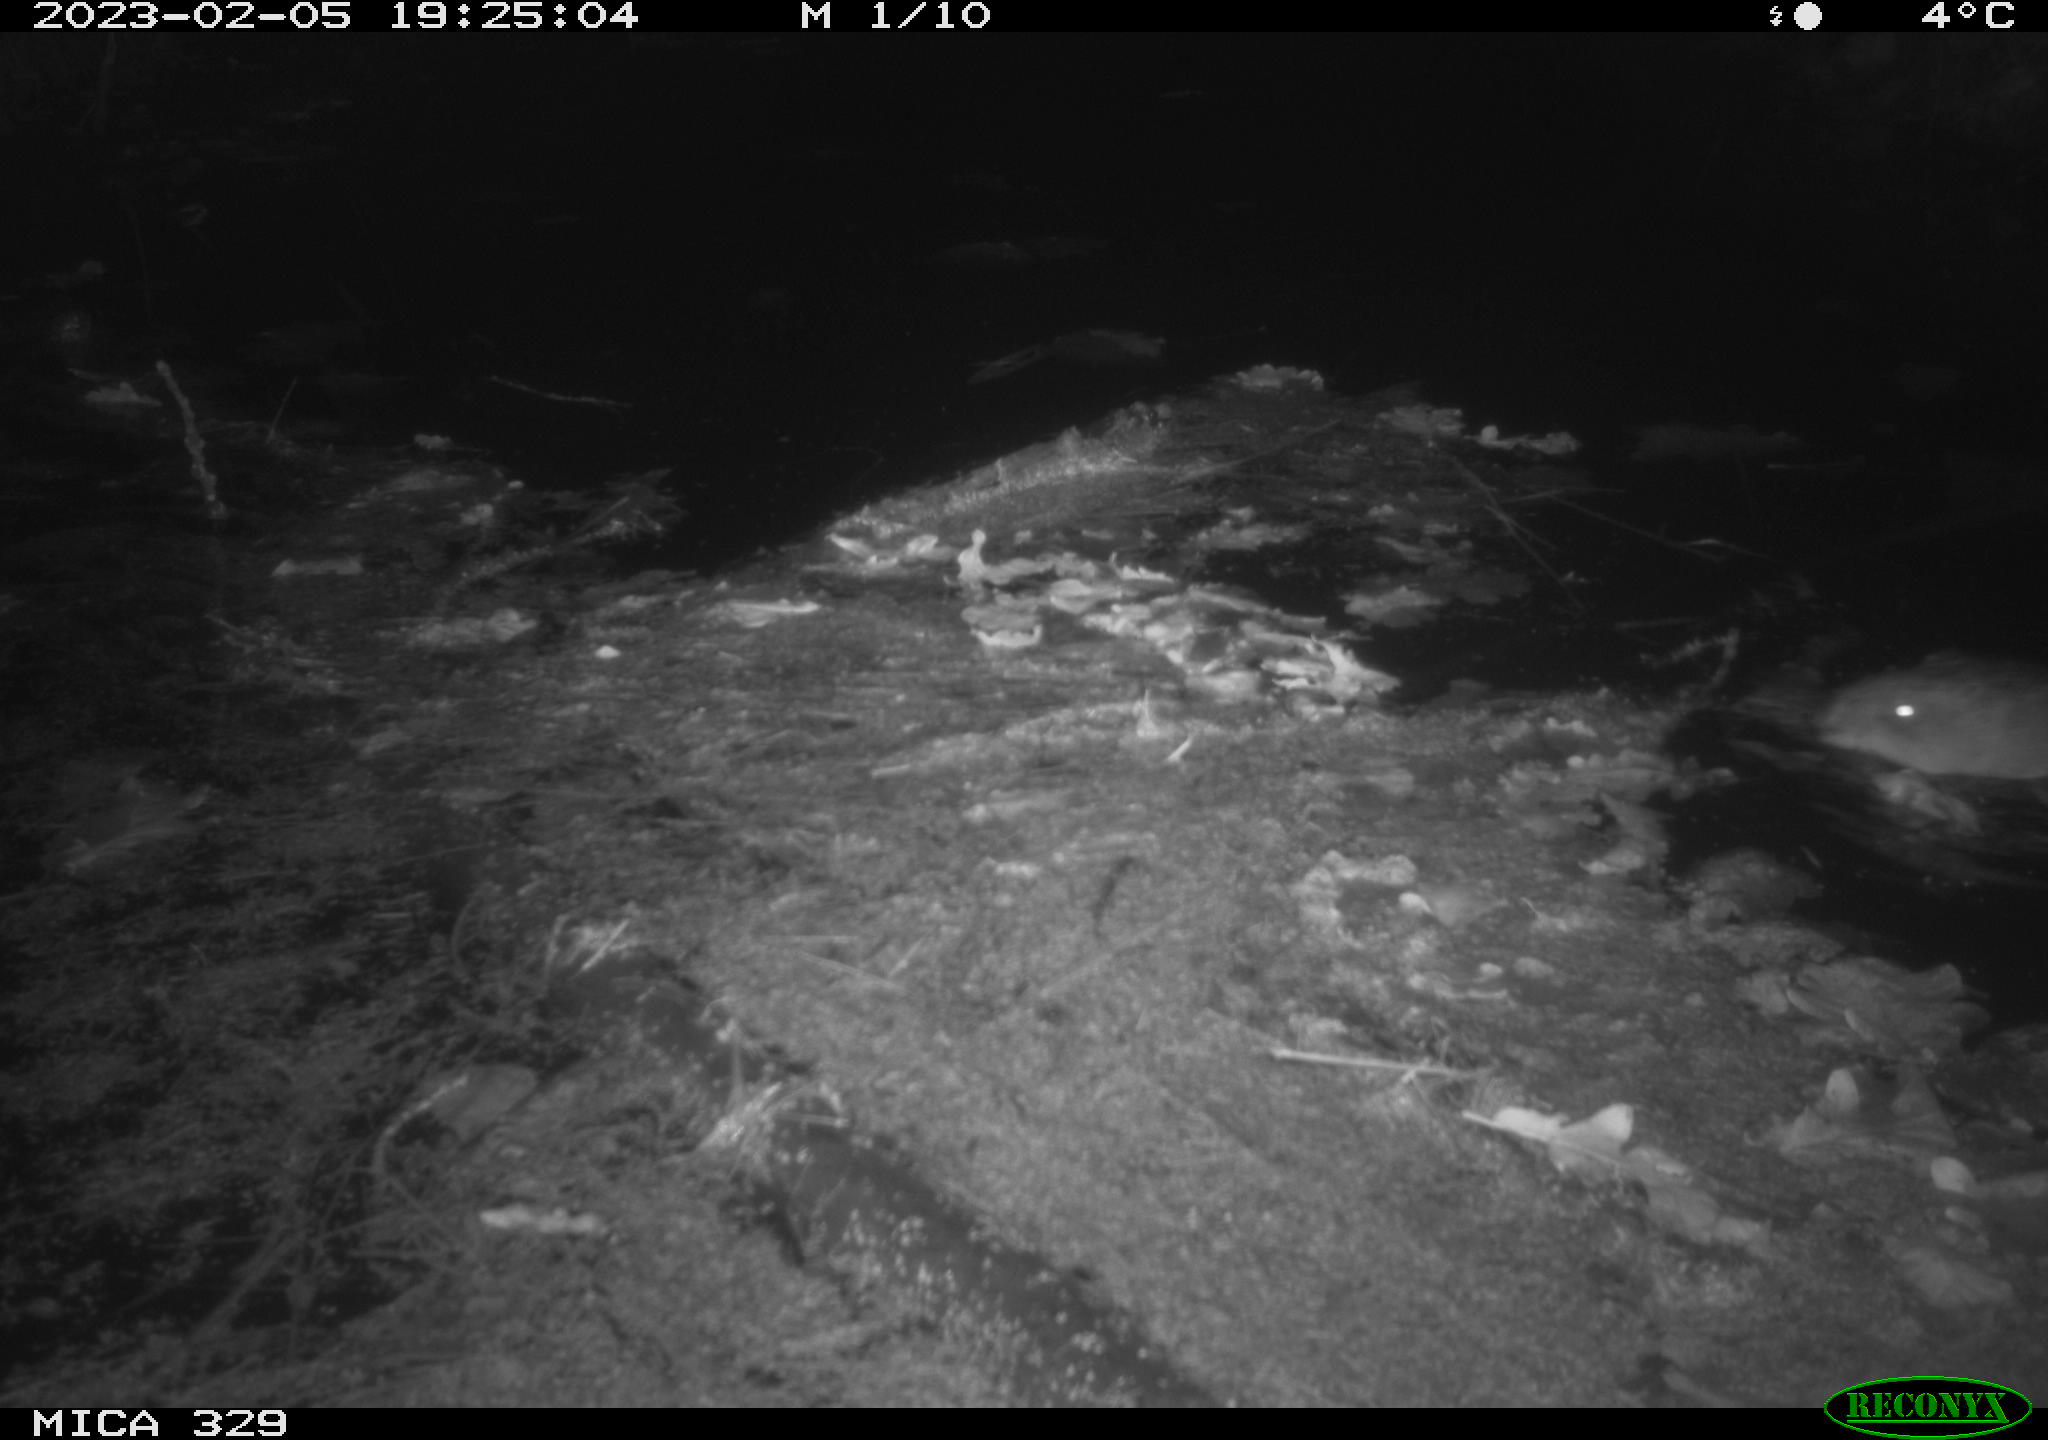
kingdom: Animalia
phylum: Chordata
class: Mammalia
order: Rodentia
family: Cricetidae
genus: Ondatra
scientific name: Ondatra zibethicus
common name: Muskrat
